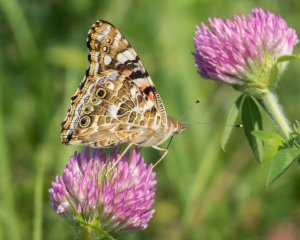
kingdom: Animalia
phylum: Arthropoda
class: Insecta
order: Lepidoptera
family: Nymphalidae
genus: Vanessa
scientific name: Vanessa cardui
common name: Painted Lady
